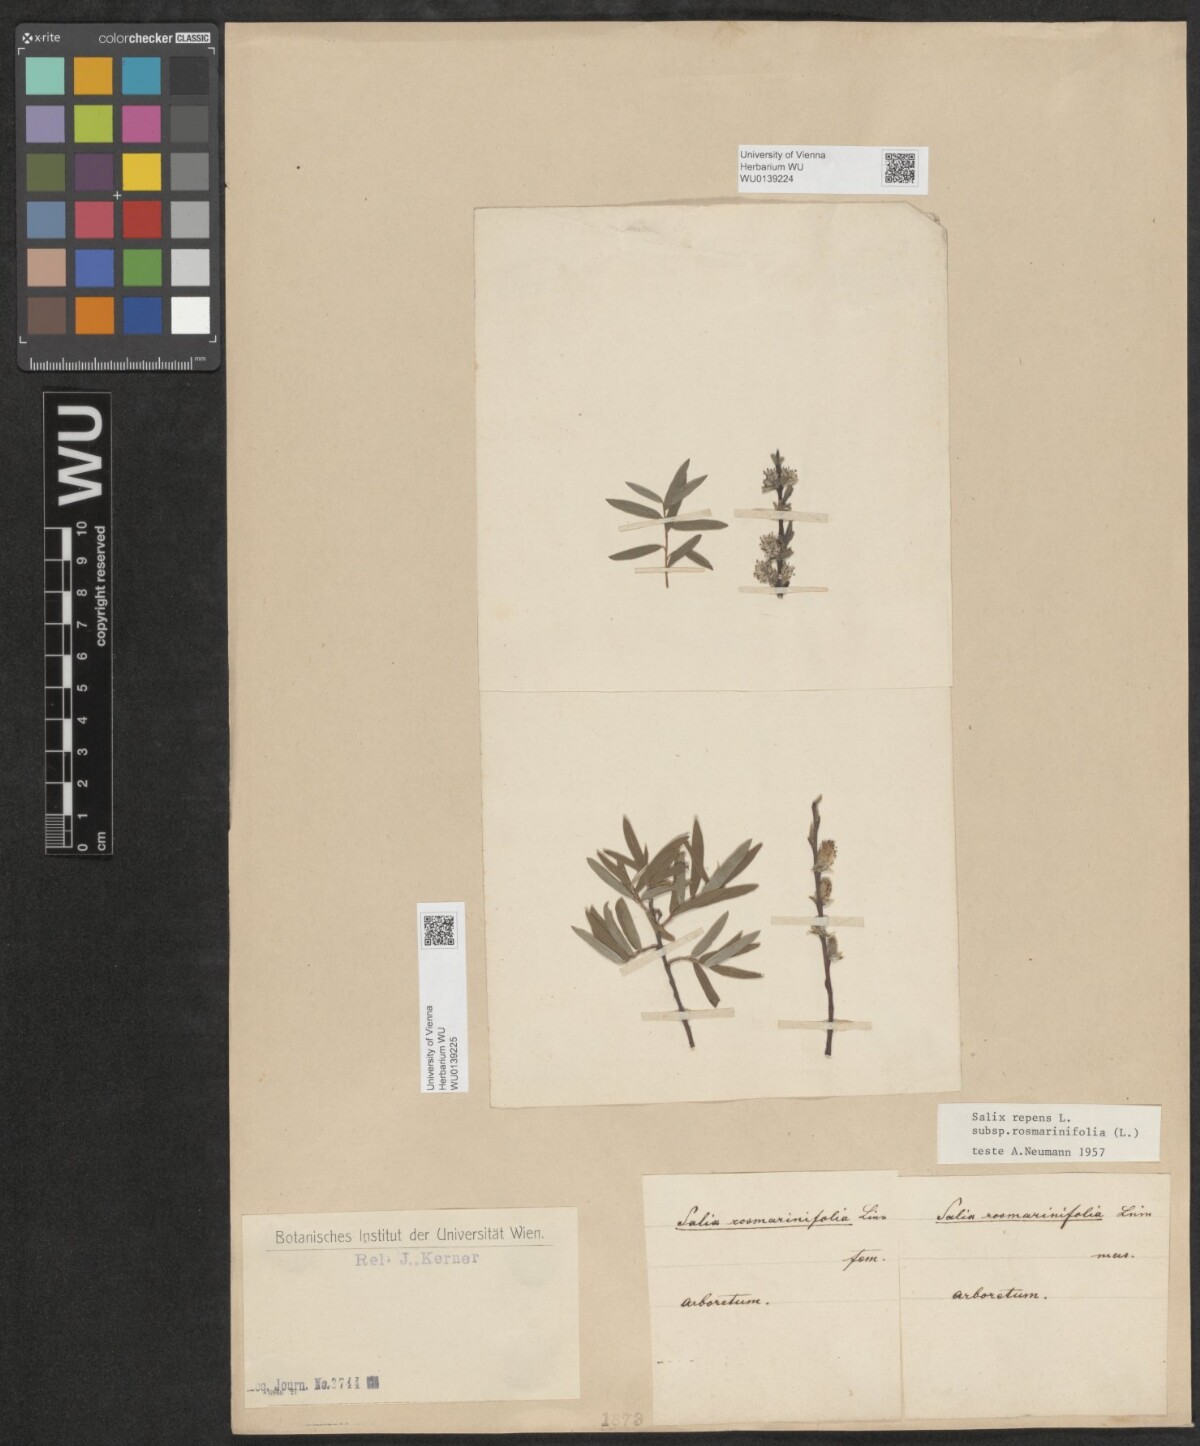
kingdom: Plantae
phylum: Tracheophyta
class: Magnoliopsida
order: Malpighiales
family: Salicaceae
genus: Salix
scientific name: Salix repens
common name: Creeping willow
